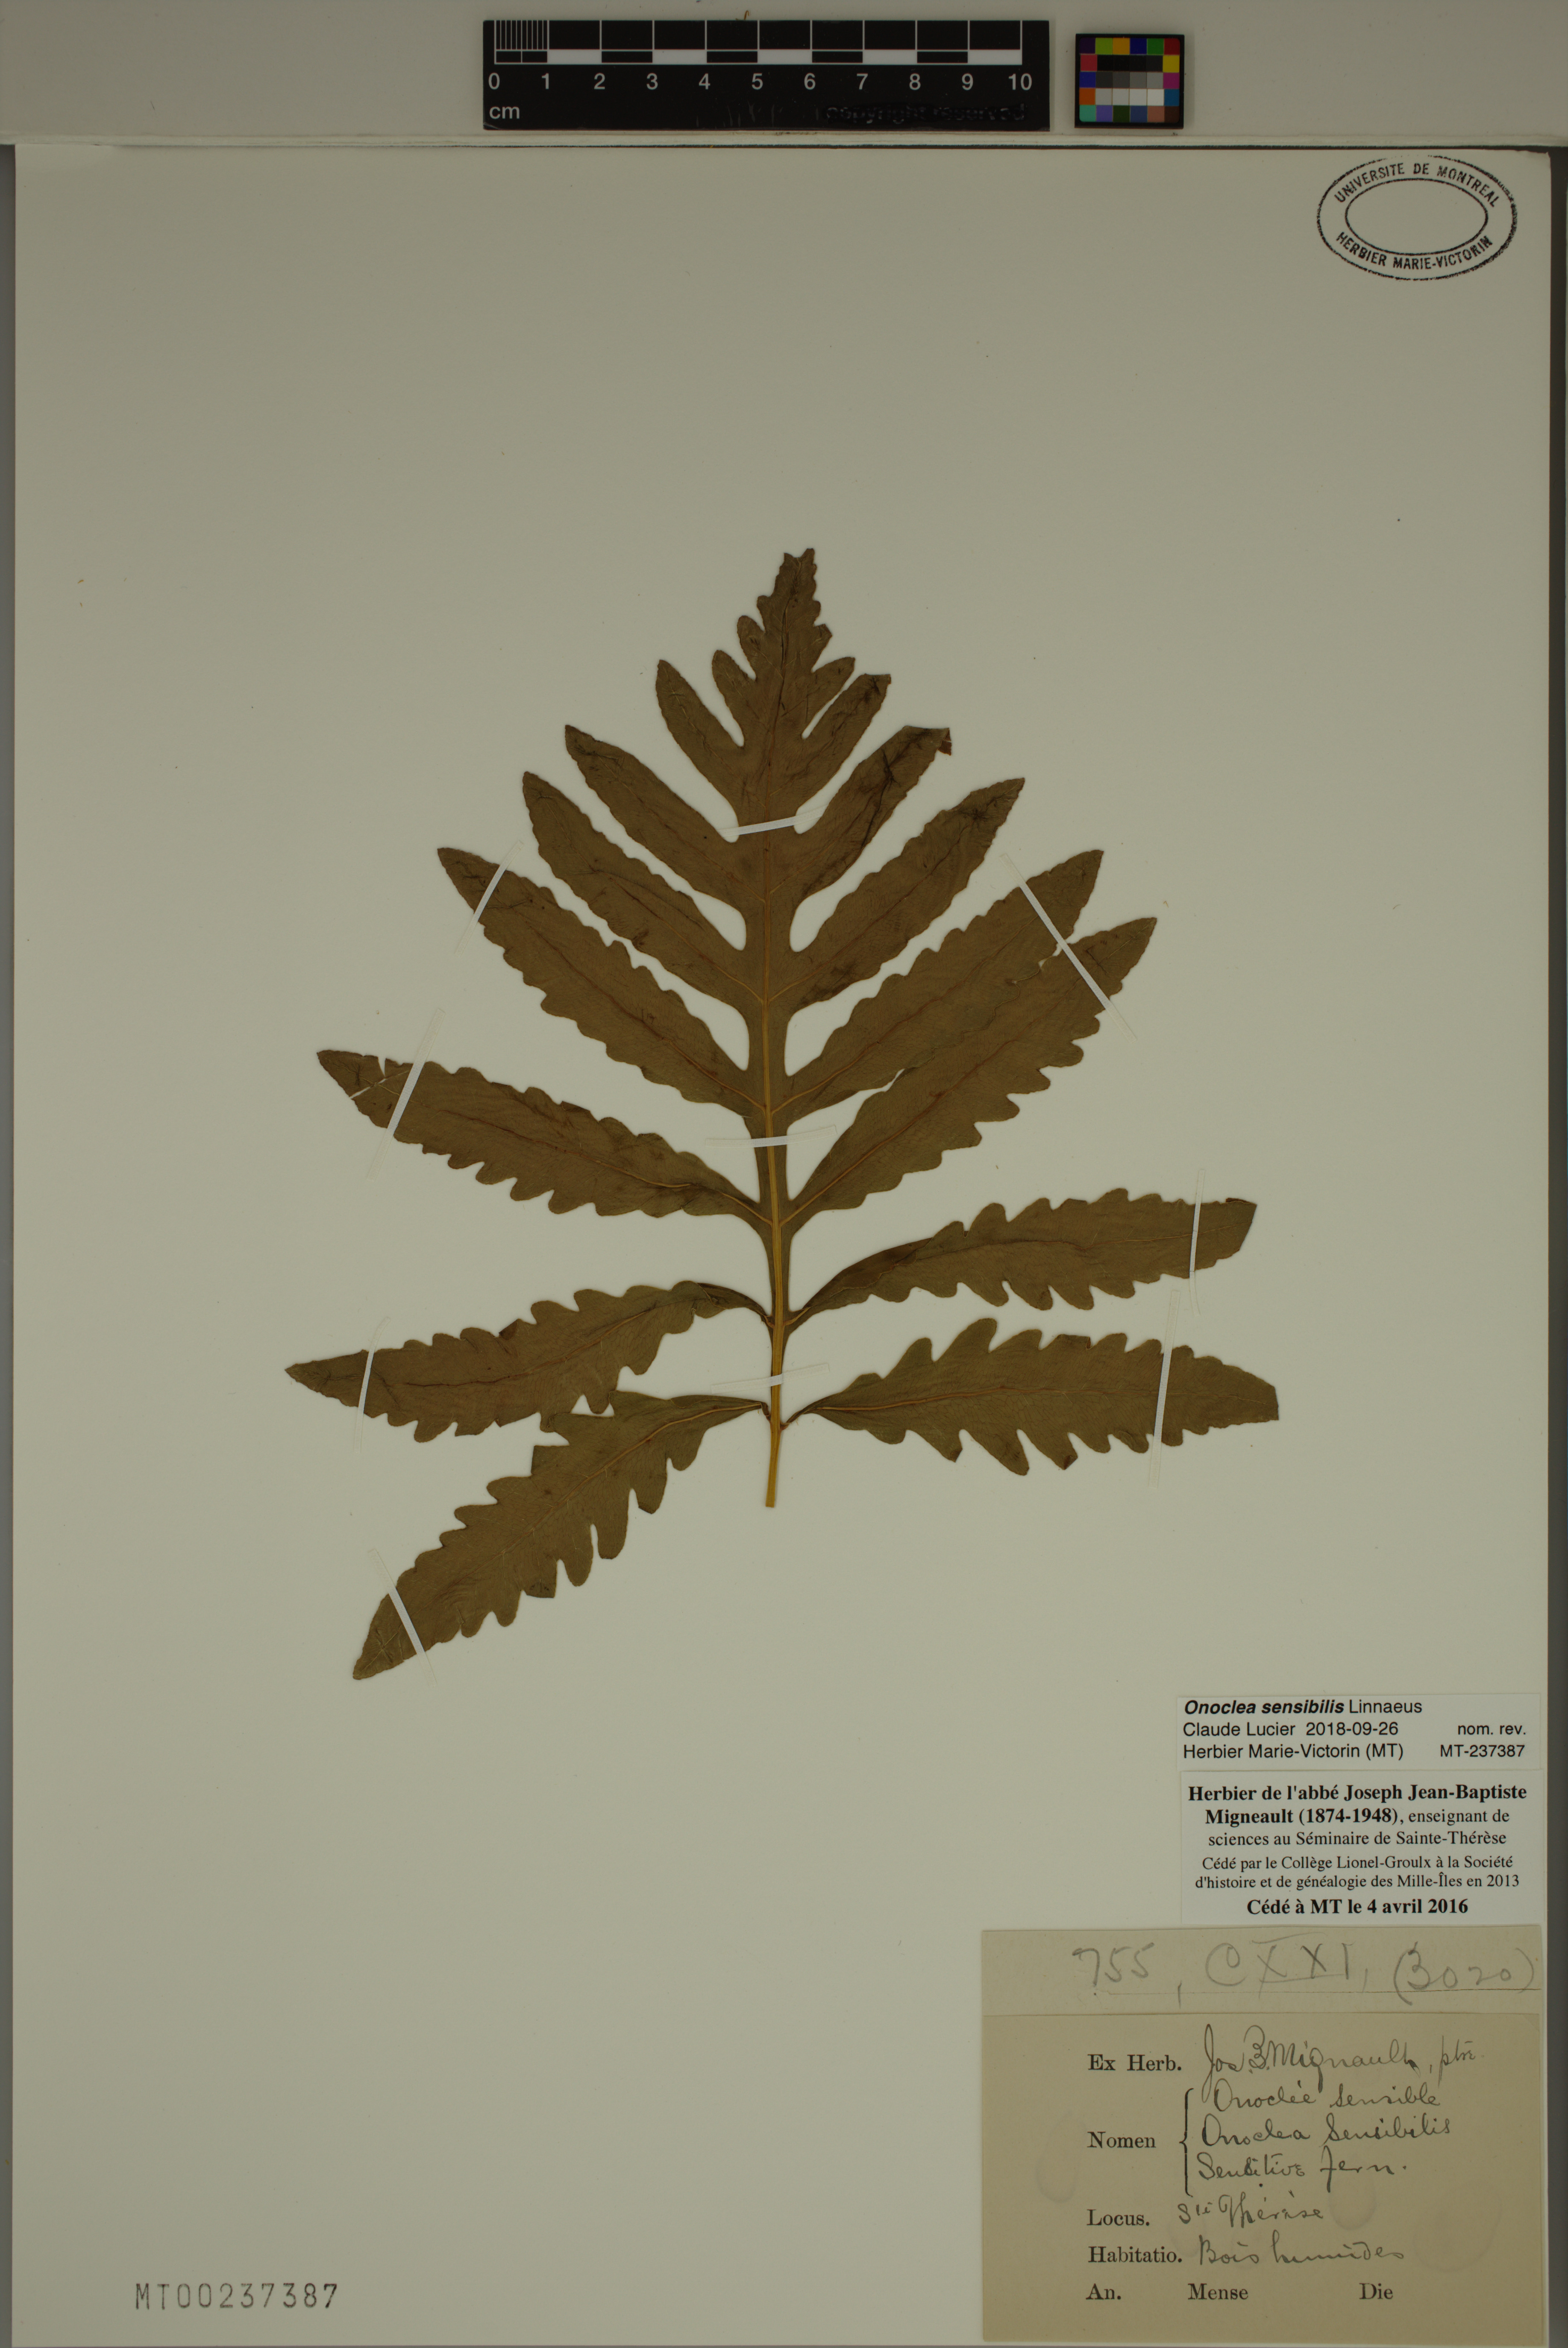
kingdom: Plantae
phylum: Tracheophyta
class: Polypodiopsida
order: Polypodiales
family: Onocleaceae
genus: Onoclea
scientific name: Onoclea sensibilis
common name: Sensitive fern
